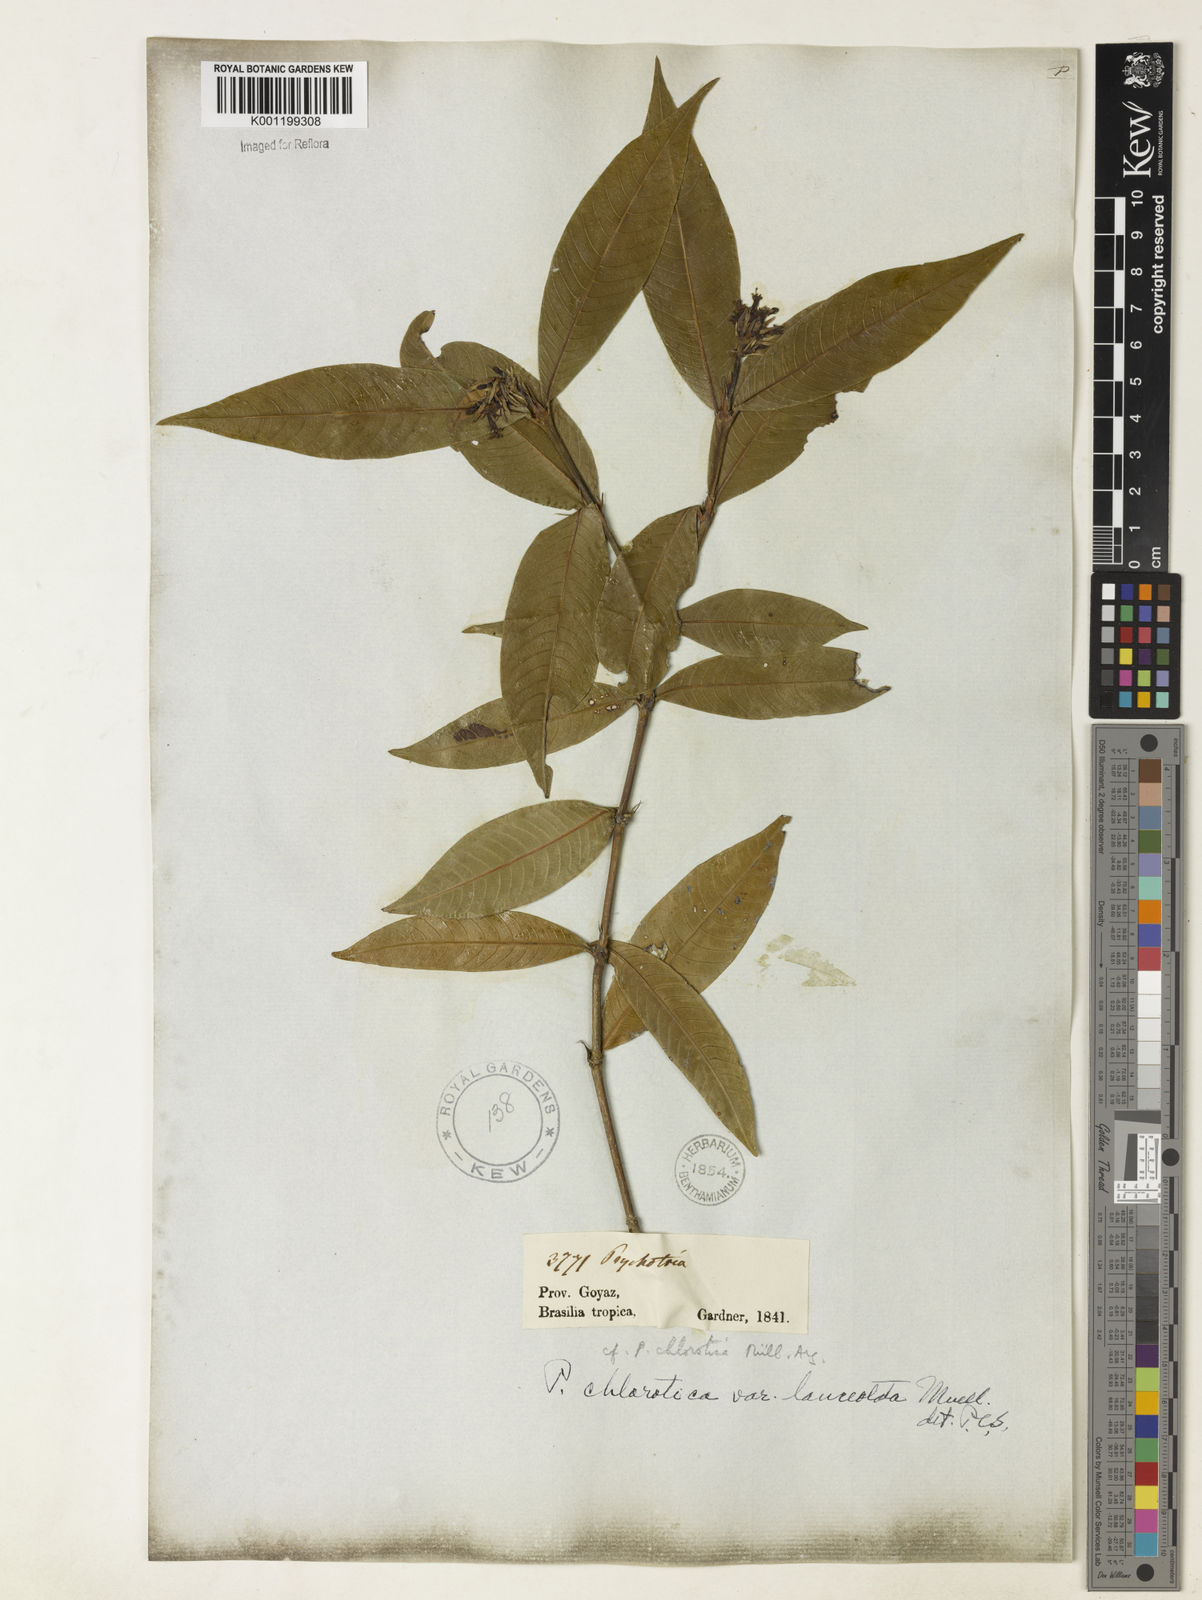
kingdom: Plantae
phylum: Tracheophyta
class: Magnoliopsida
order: Gentianales
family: Rubiaceae
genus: Palicourea
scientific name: Palicourea violacea
